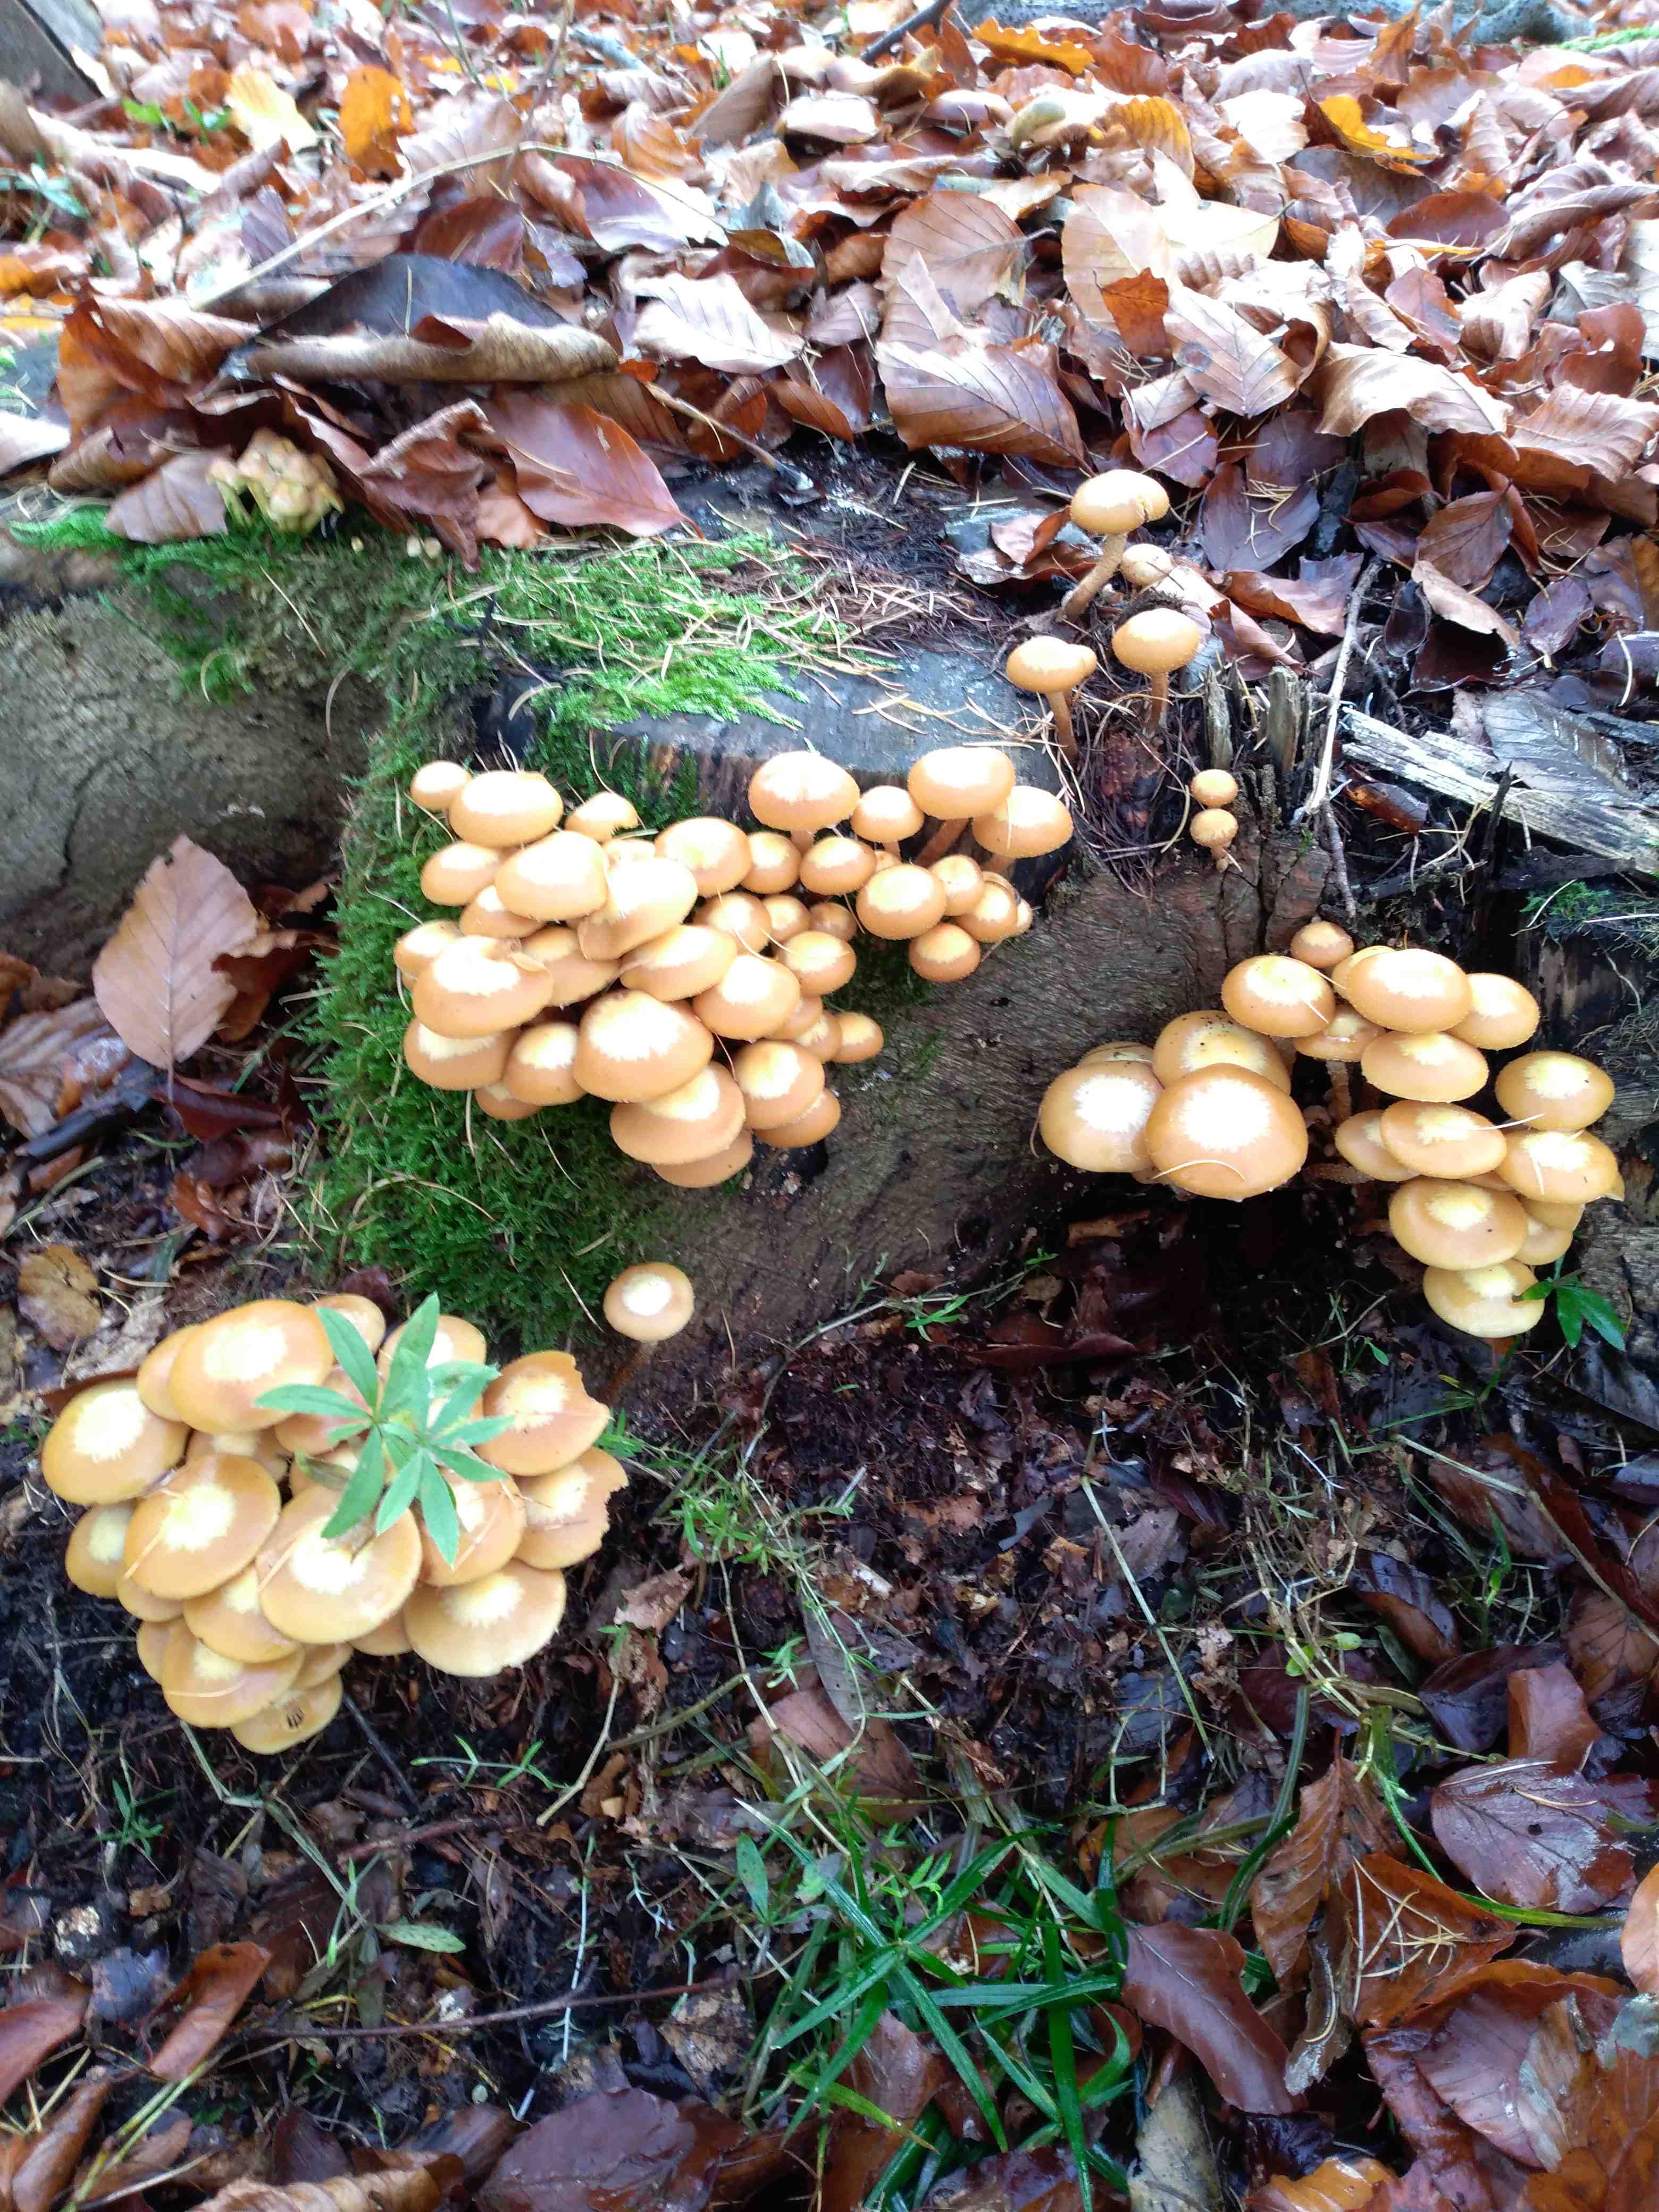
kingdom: Fungi
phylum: Basidiomycota
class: Agaricomycetes
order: Agaricales
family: Strophariaceae
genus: Kuehneromyces
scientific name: Kuehneromyces mutabilis
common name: foranderlig skælhat
